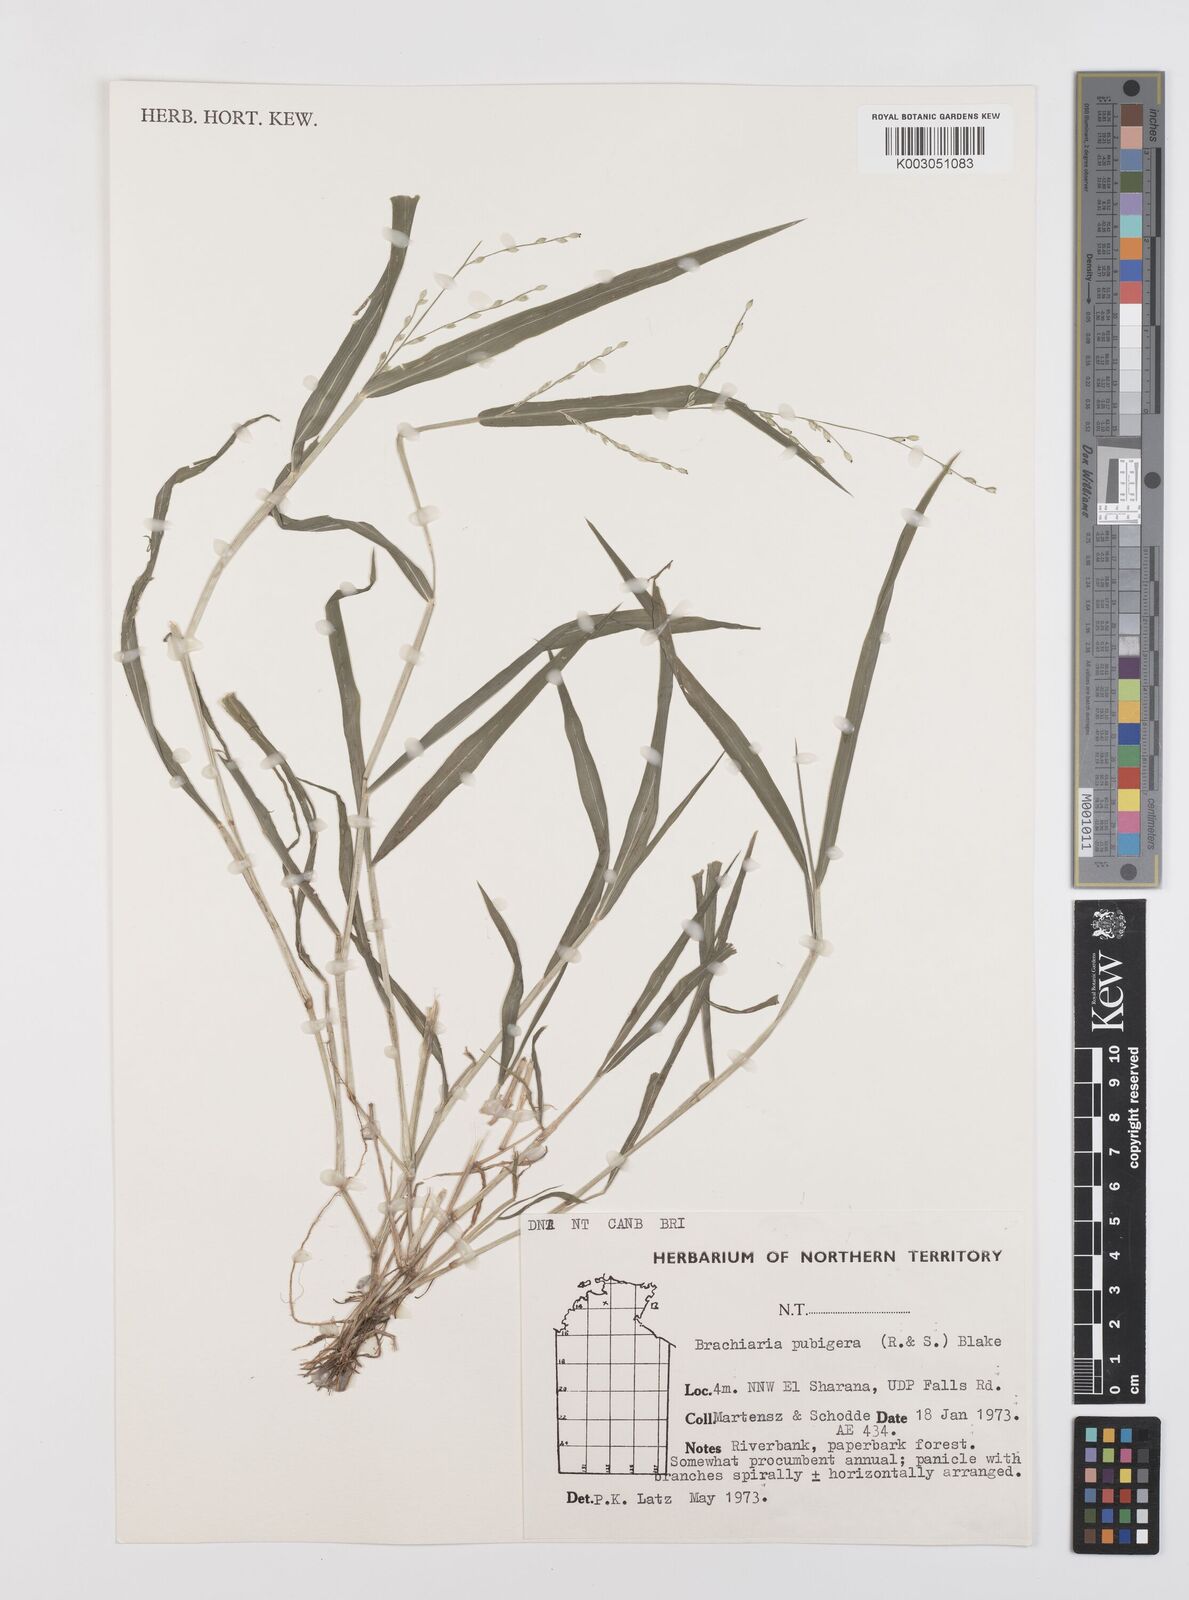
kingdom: Plantae
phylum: Tracheophyta
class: Liliopsida
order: Poales
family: Poaceae
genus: Urochloa
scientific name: Urochloa piligera
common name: Wattle signalgrass
